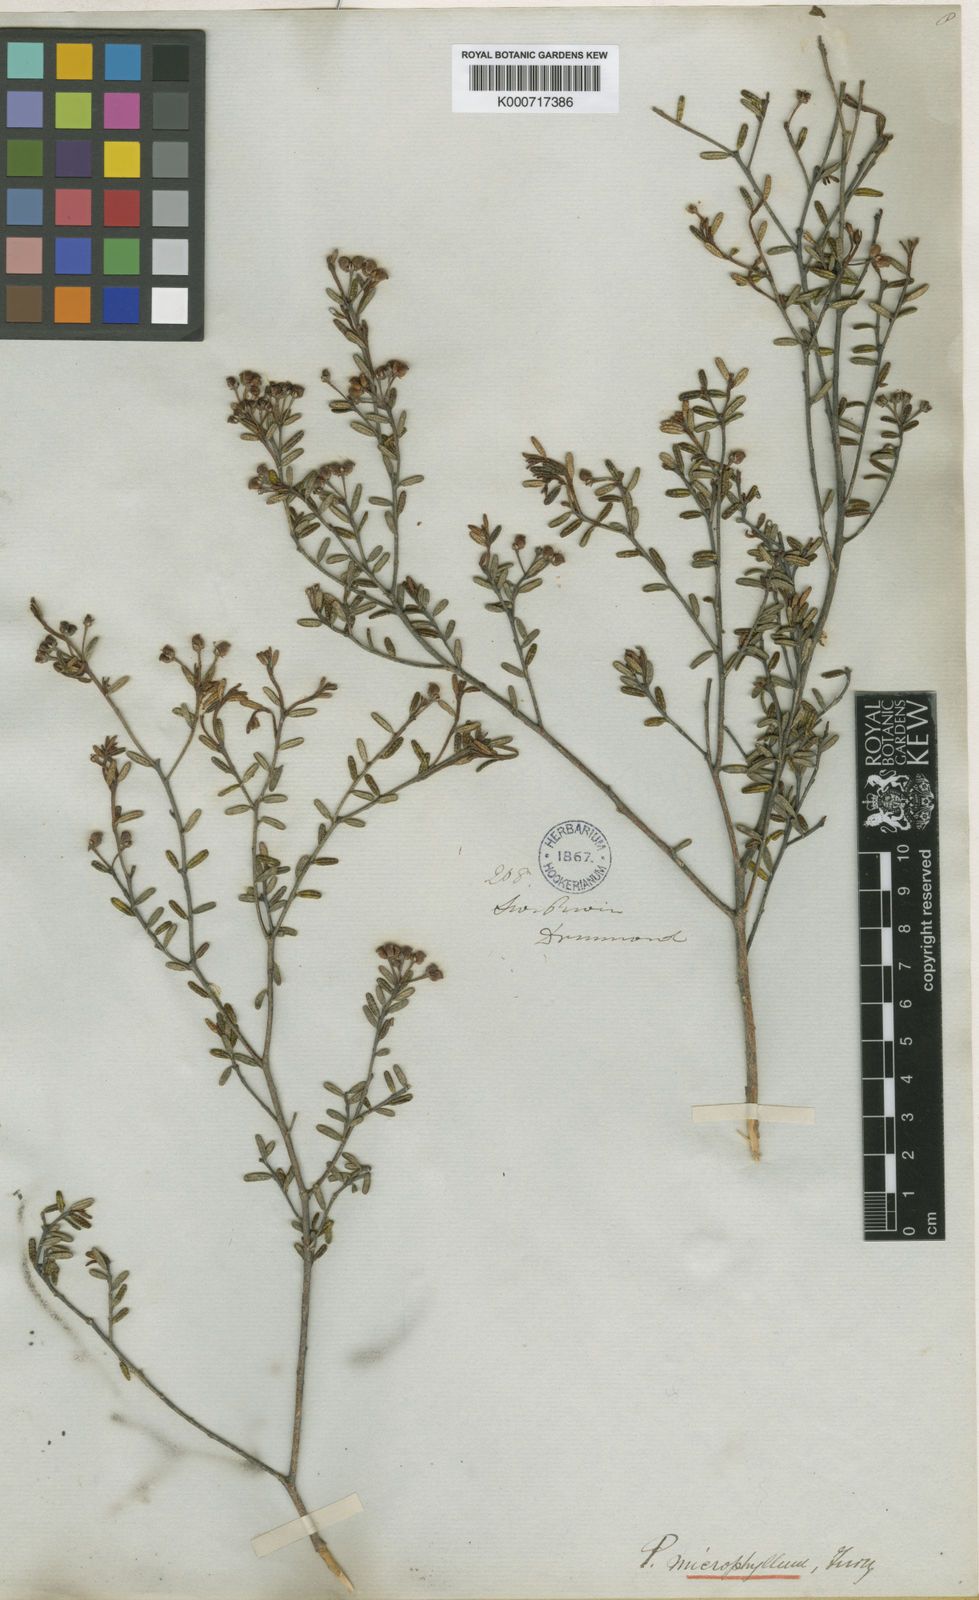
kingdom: Plantae
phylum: Tracheophyta
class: Magnoliopsida
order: Sapindales
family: Rutaceae
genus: Phebalium
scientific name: Phebalium microphyllum
